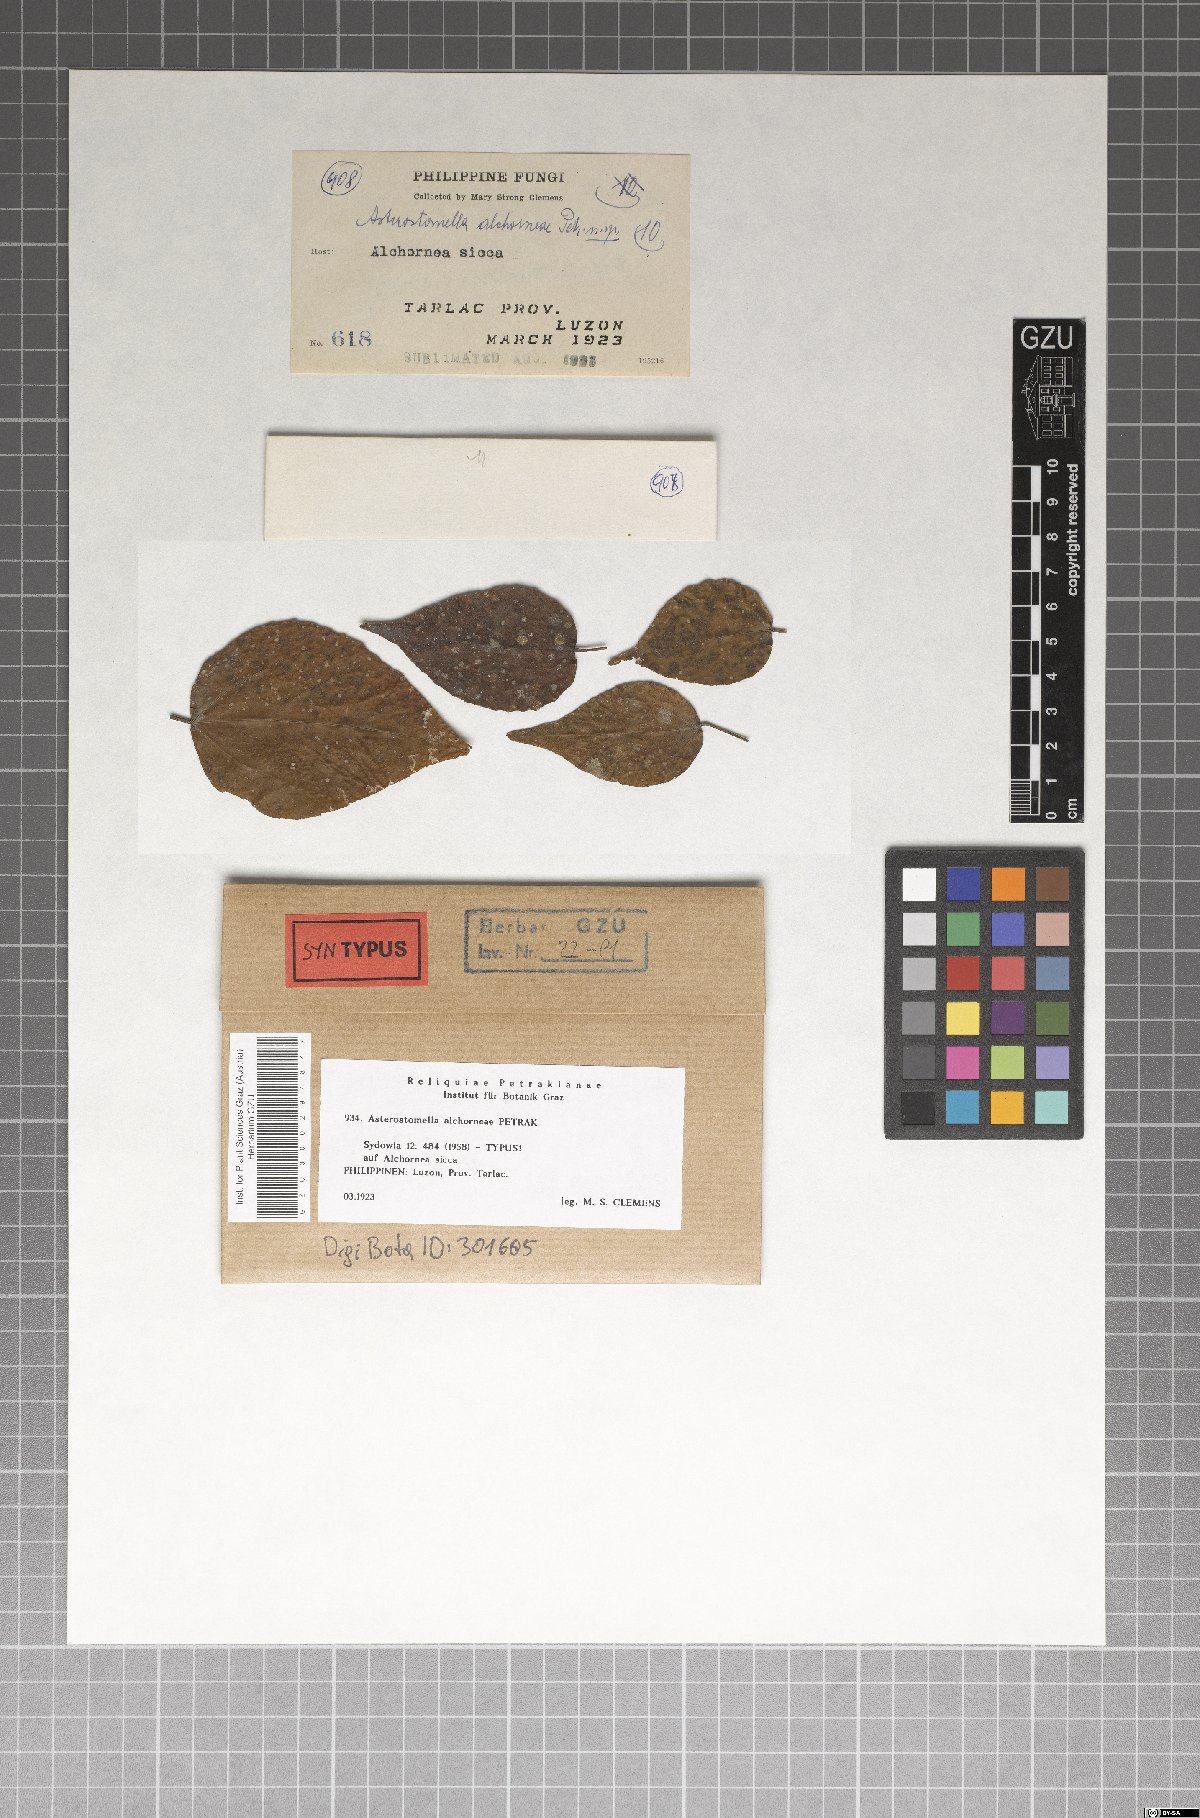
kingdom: Fungi
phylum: Ascomycota
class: Dothideomycetes
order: Asterinales
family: Asterinaceae
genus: Asterostomella
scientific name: Asterostomella alchorneae
